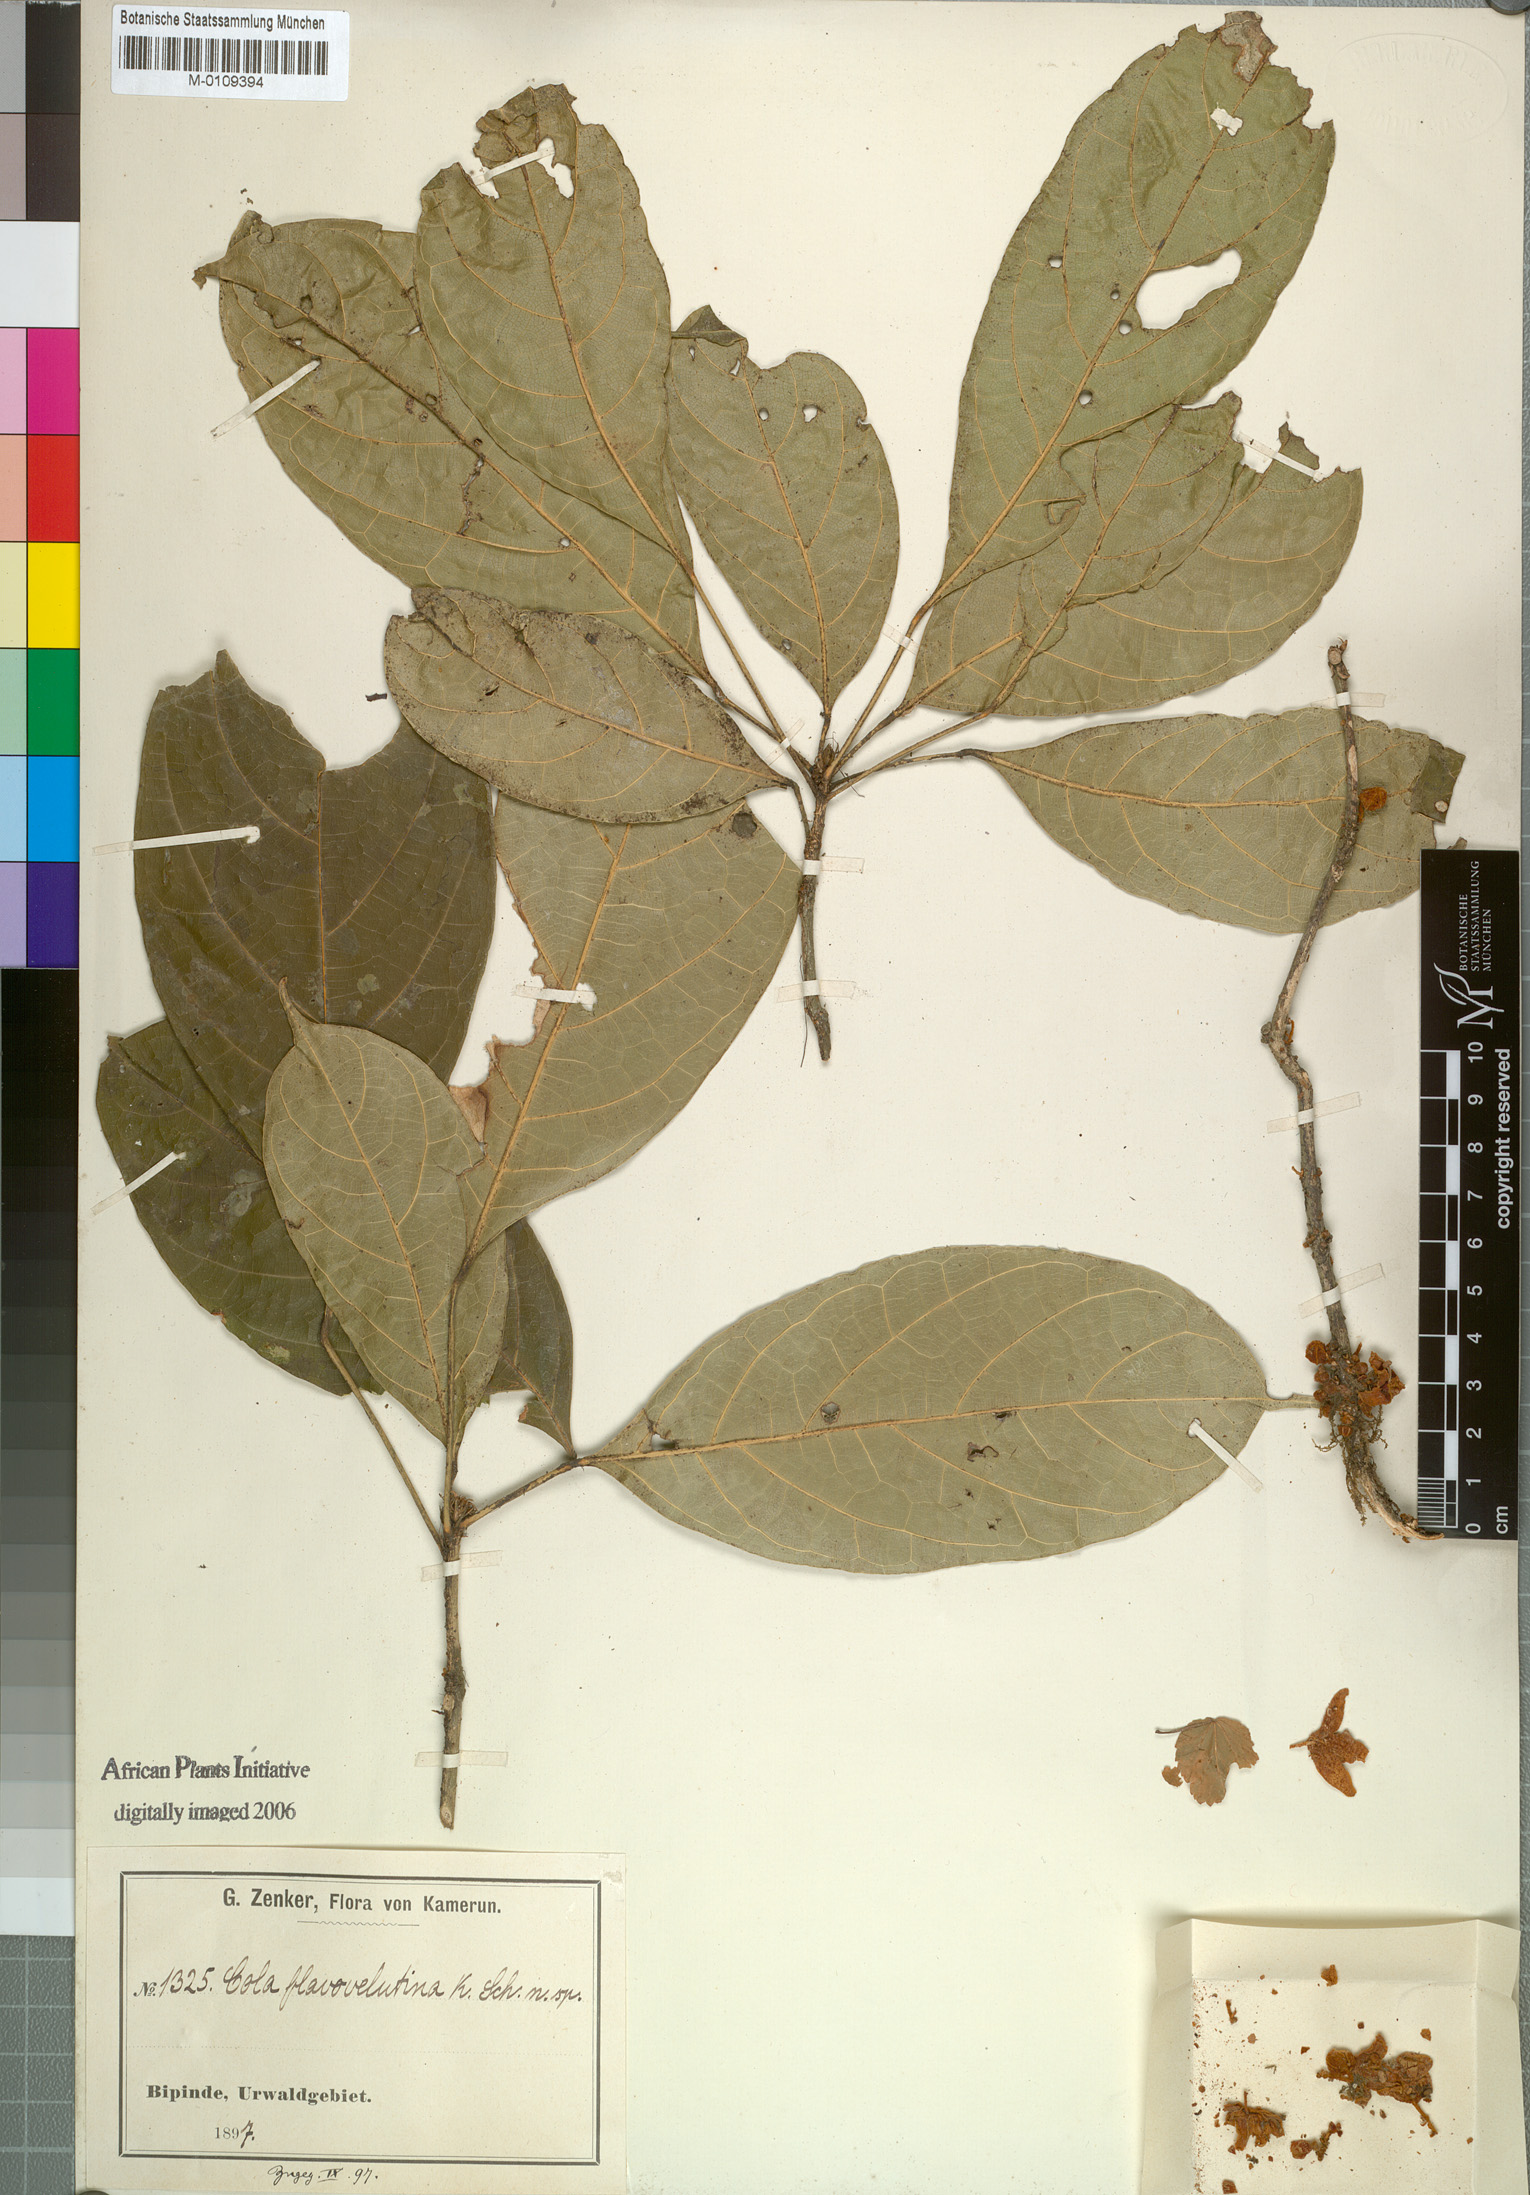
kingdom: Plantae
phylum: Tracheophyta
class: Magnoliopsida
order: Malvales
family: Malvaceae
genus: Cola
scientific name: Cola flavovelutina
